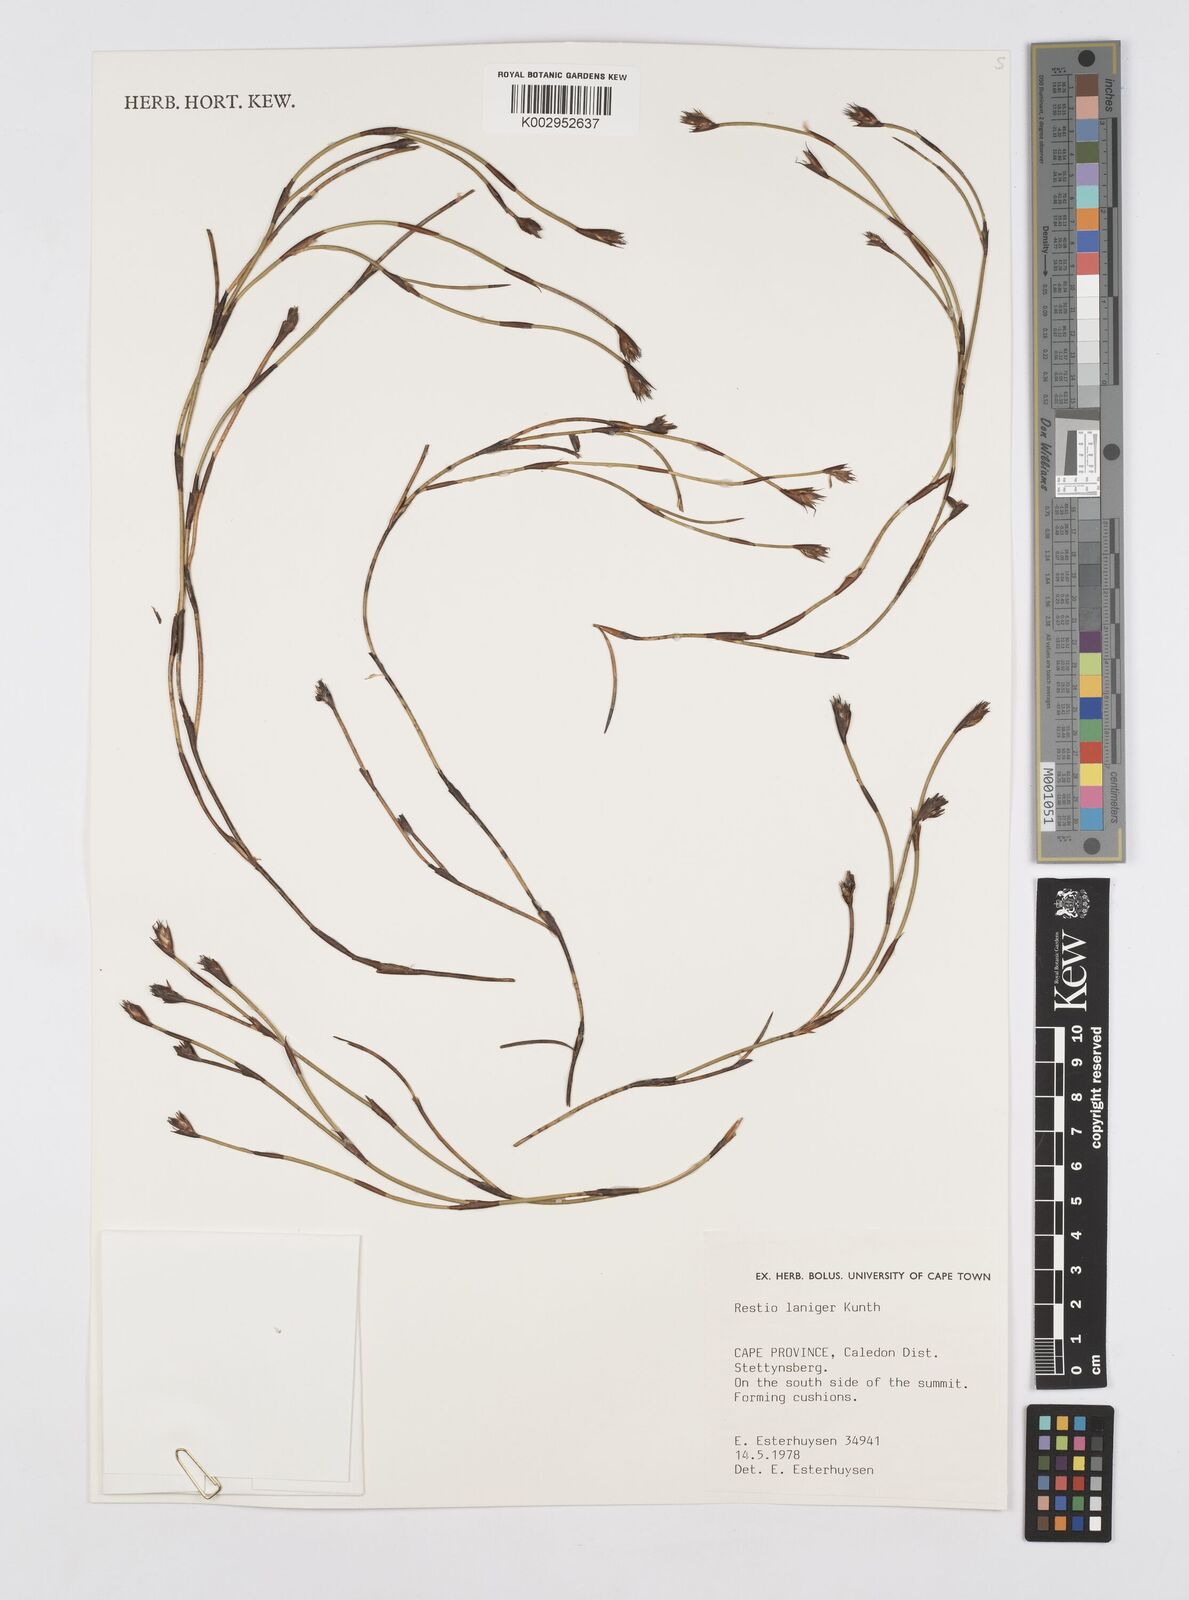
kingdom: Plantae
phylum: Tracheophyta
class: Liliopsida
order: Poales
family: Restionaceae
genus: Restio
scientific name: Restio laniger
